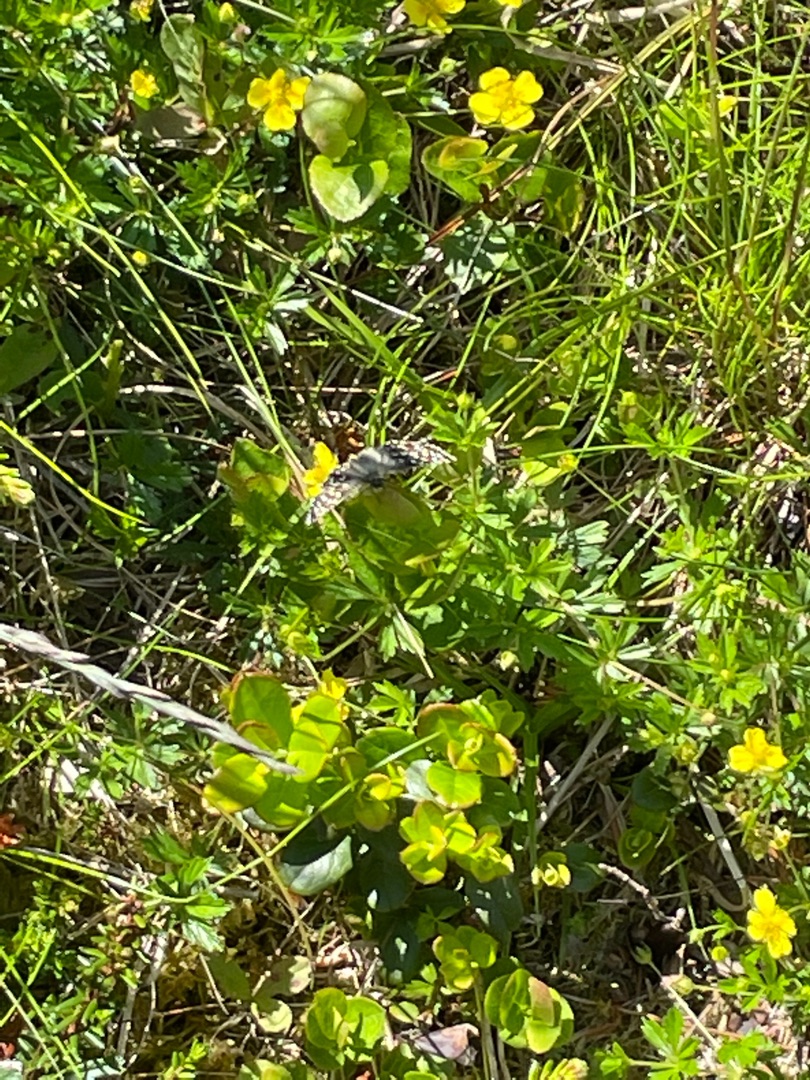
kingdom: Animalia
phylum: Arthropoda
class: Insecta
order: Lepidoptera
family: Hesperiidae
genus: Pyrgus
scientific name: Pyrgus malvae
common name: Spættet bredpande
